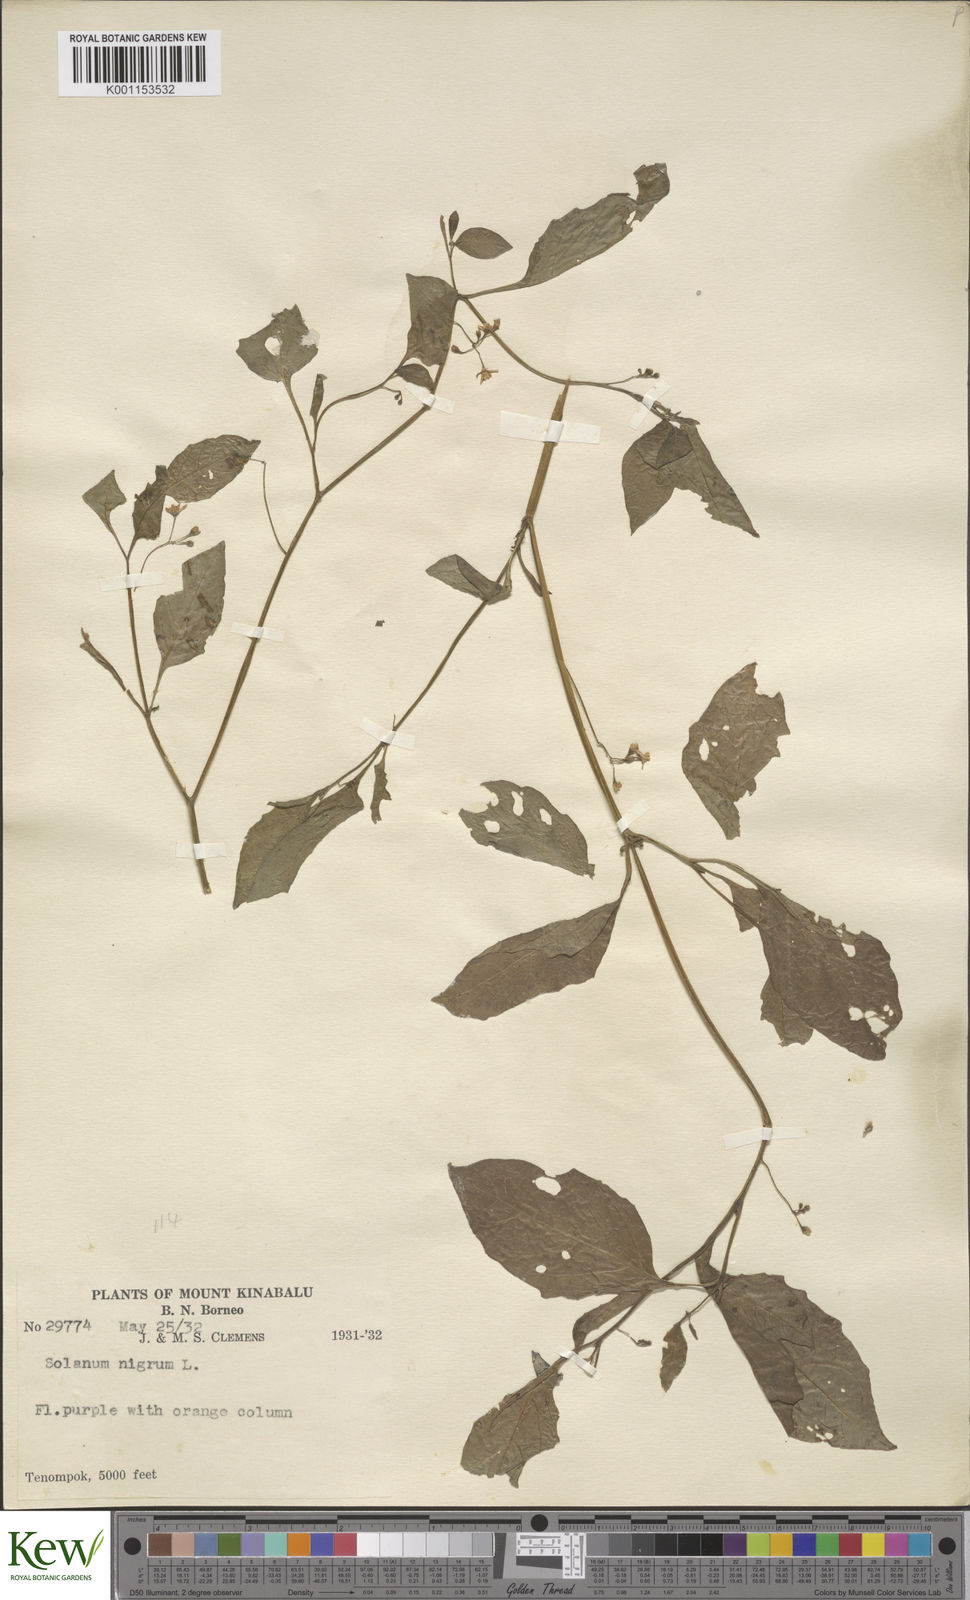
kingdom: Plantae
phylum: Tracheophyta
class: Magnoliopsida
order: Solanales
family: Solanaceae
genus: Solanum
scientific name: Solanum americanum
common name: American black nightshade
